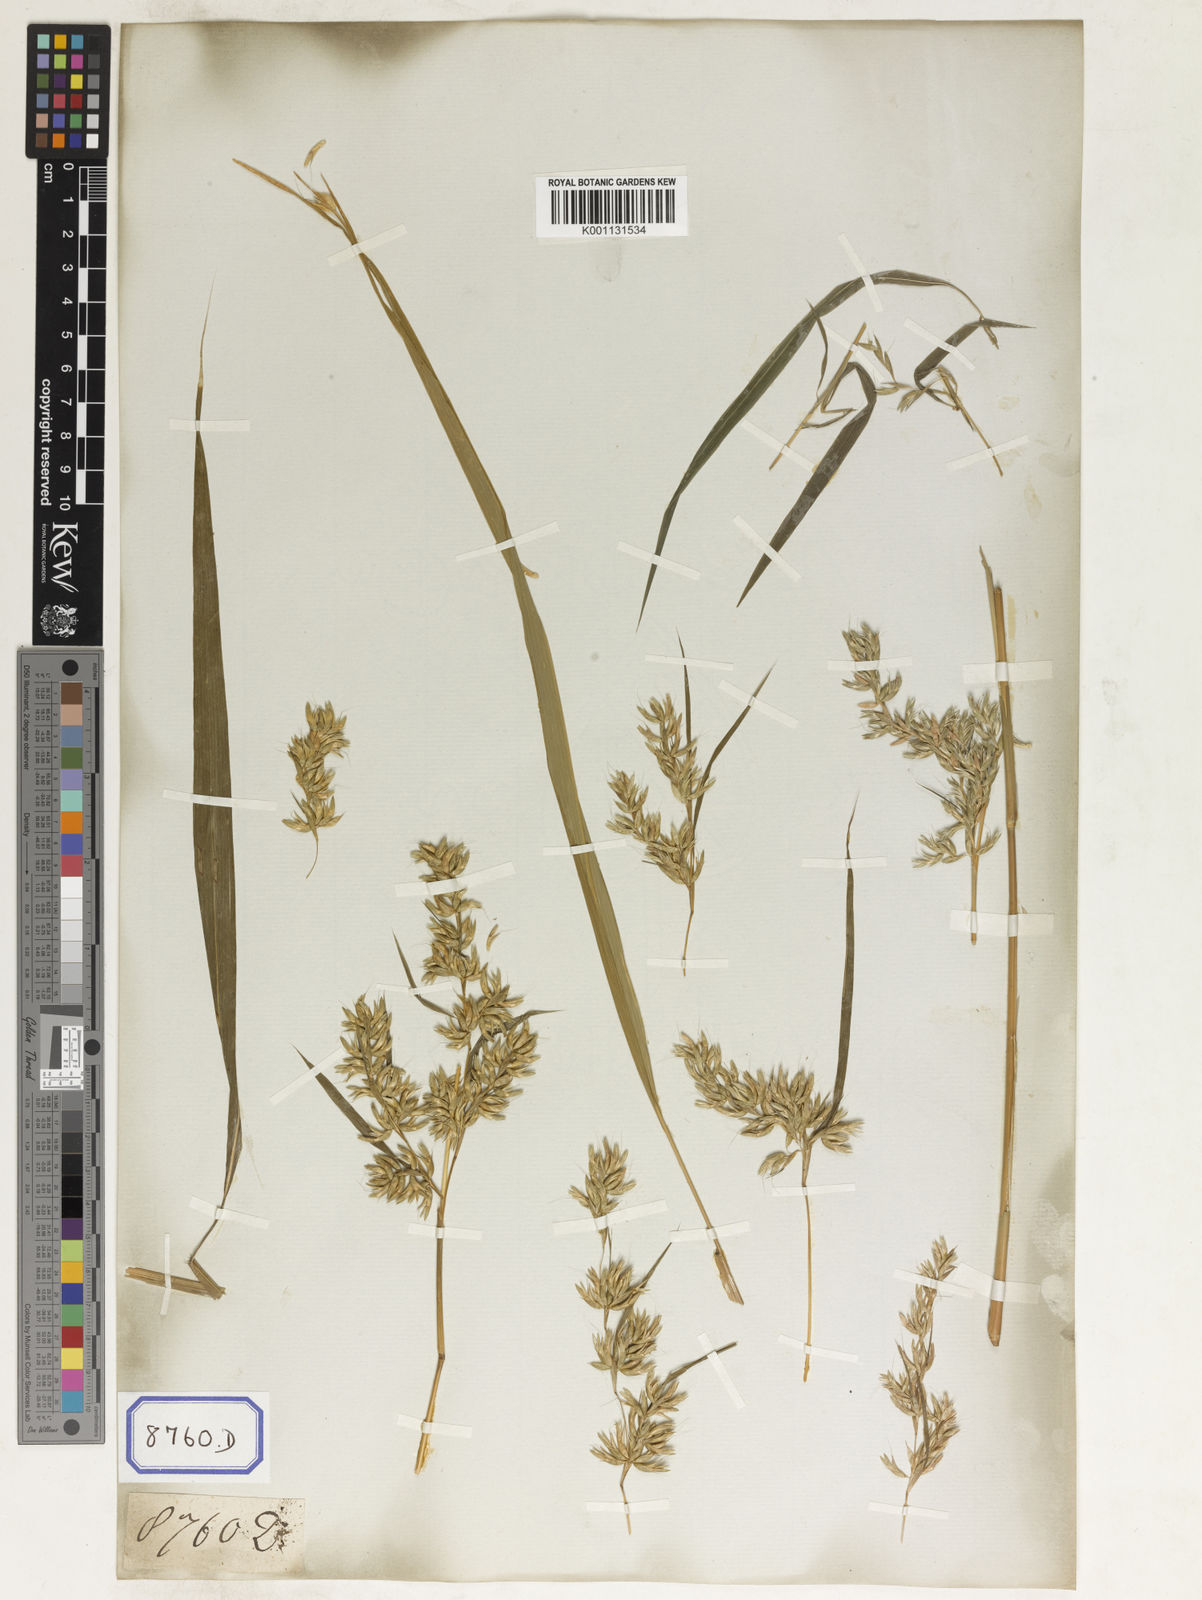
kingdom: Plantae
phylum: Tracheophyta
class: Liliopsida
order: Poales
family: Poaceae
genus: Apluda
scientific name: Apluda
